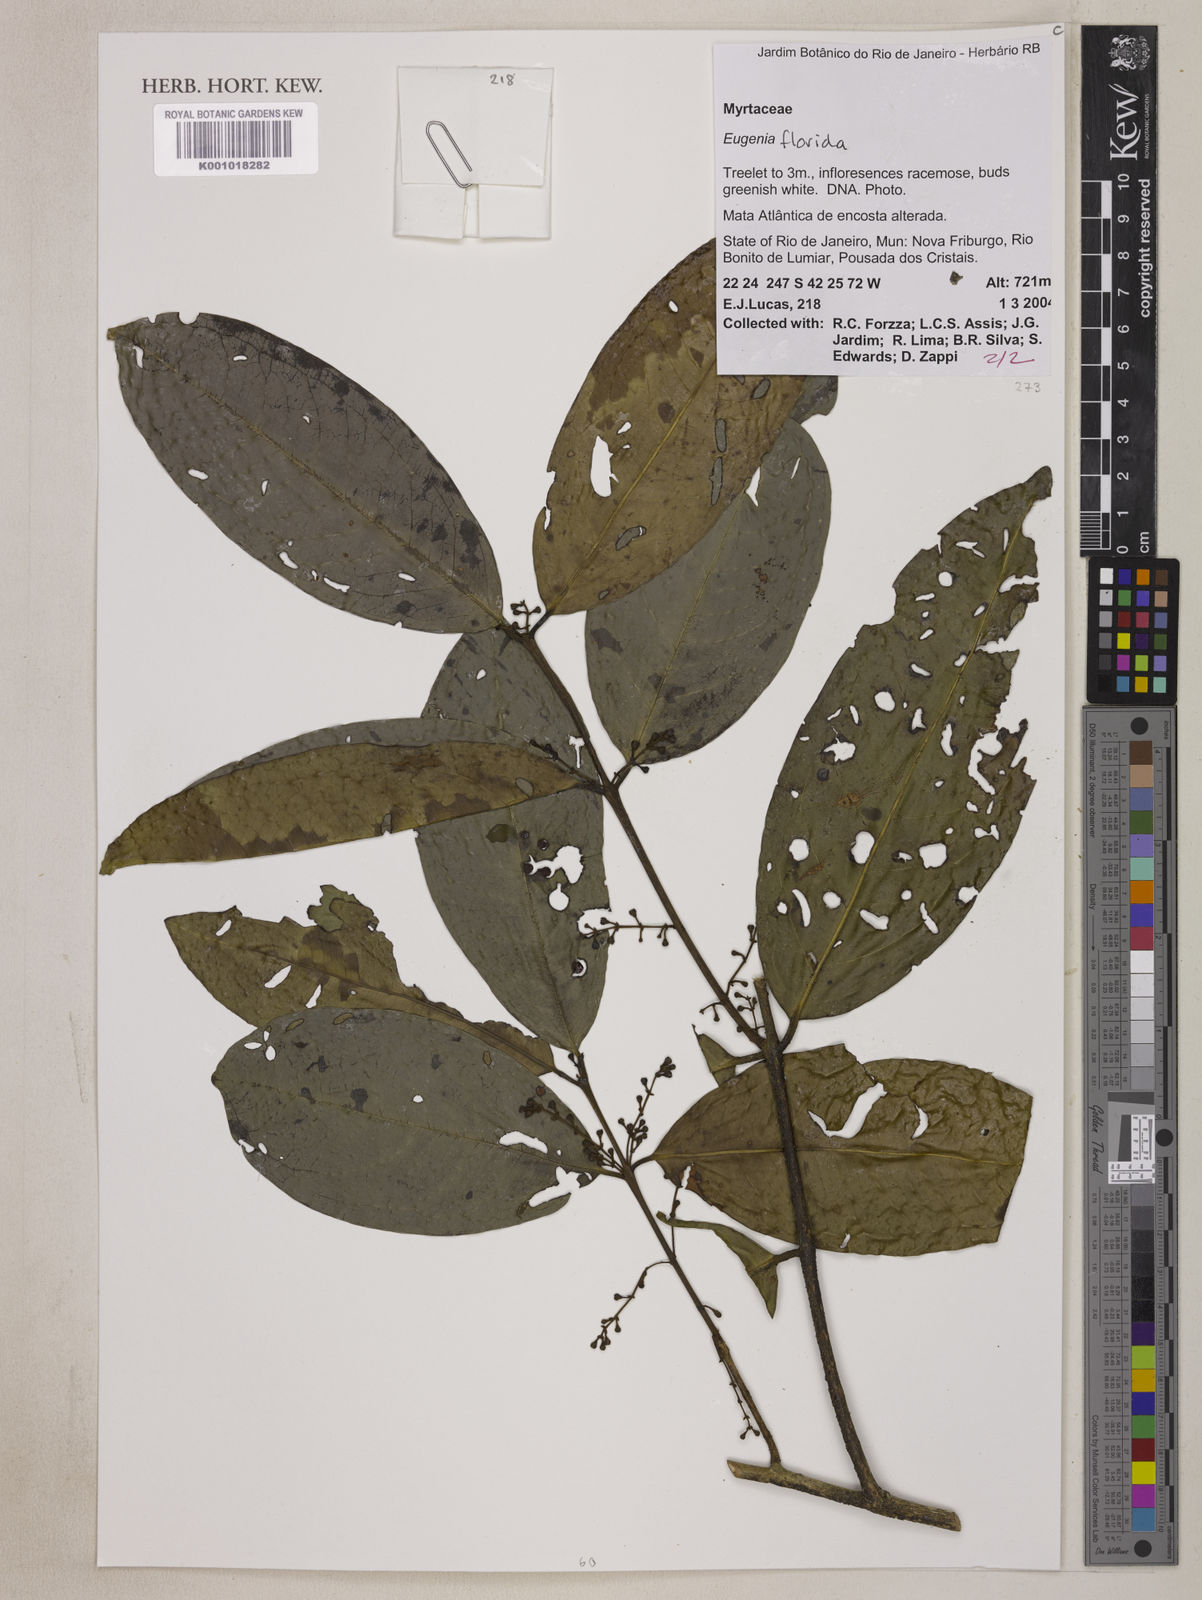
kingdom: Plantae
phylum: Tracheophyta
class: Magnoliopsida
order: Myrtales
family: Myrtaceae
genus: Eugenia
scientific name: Eugenia florida
